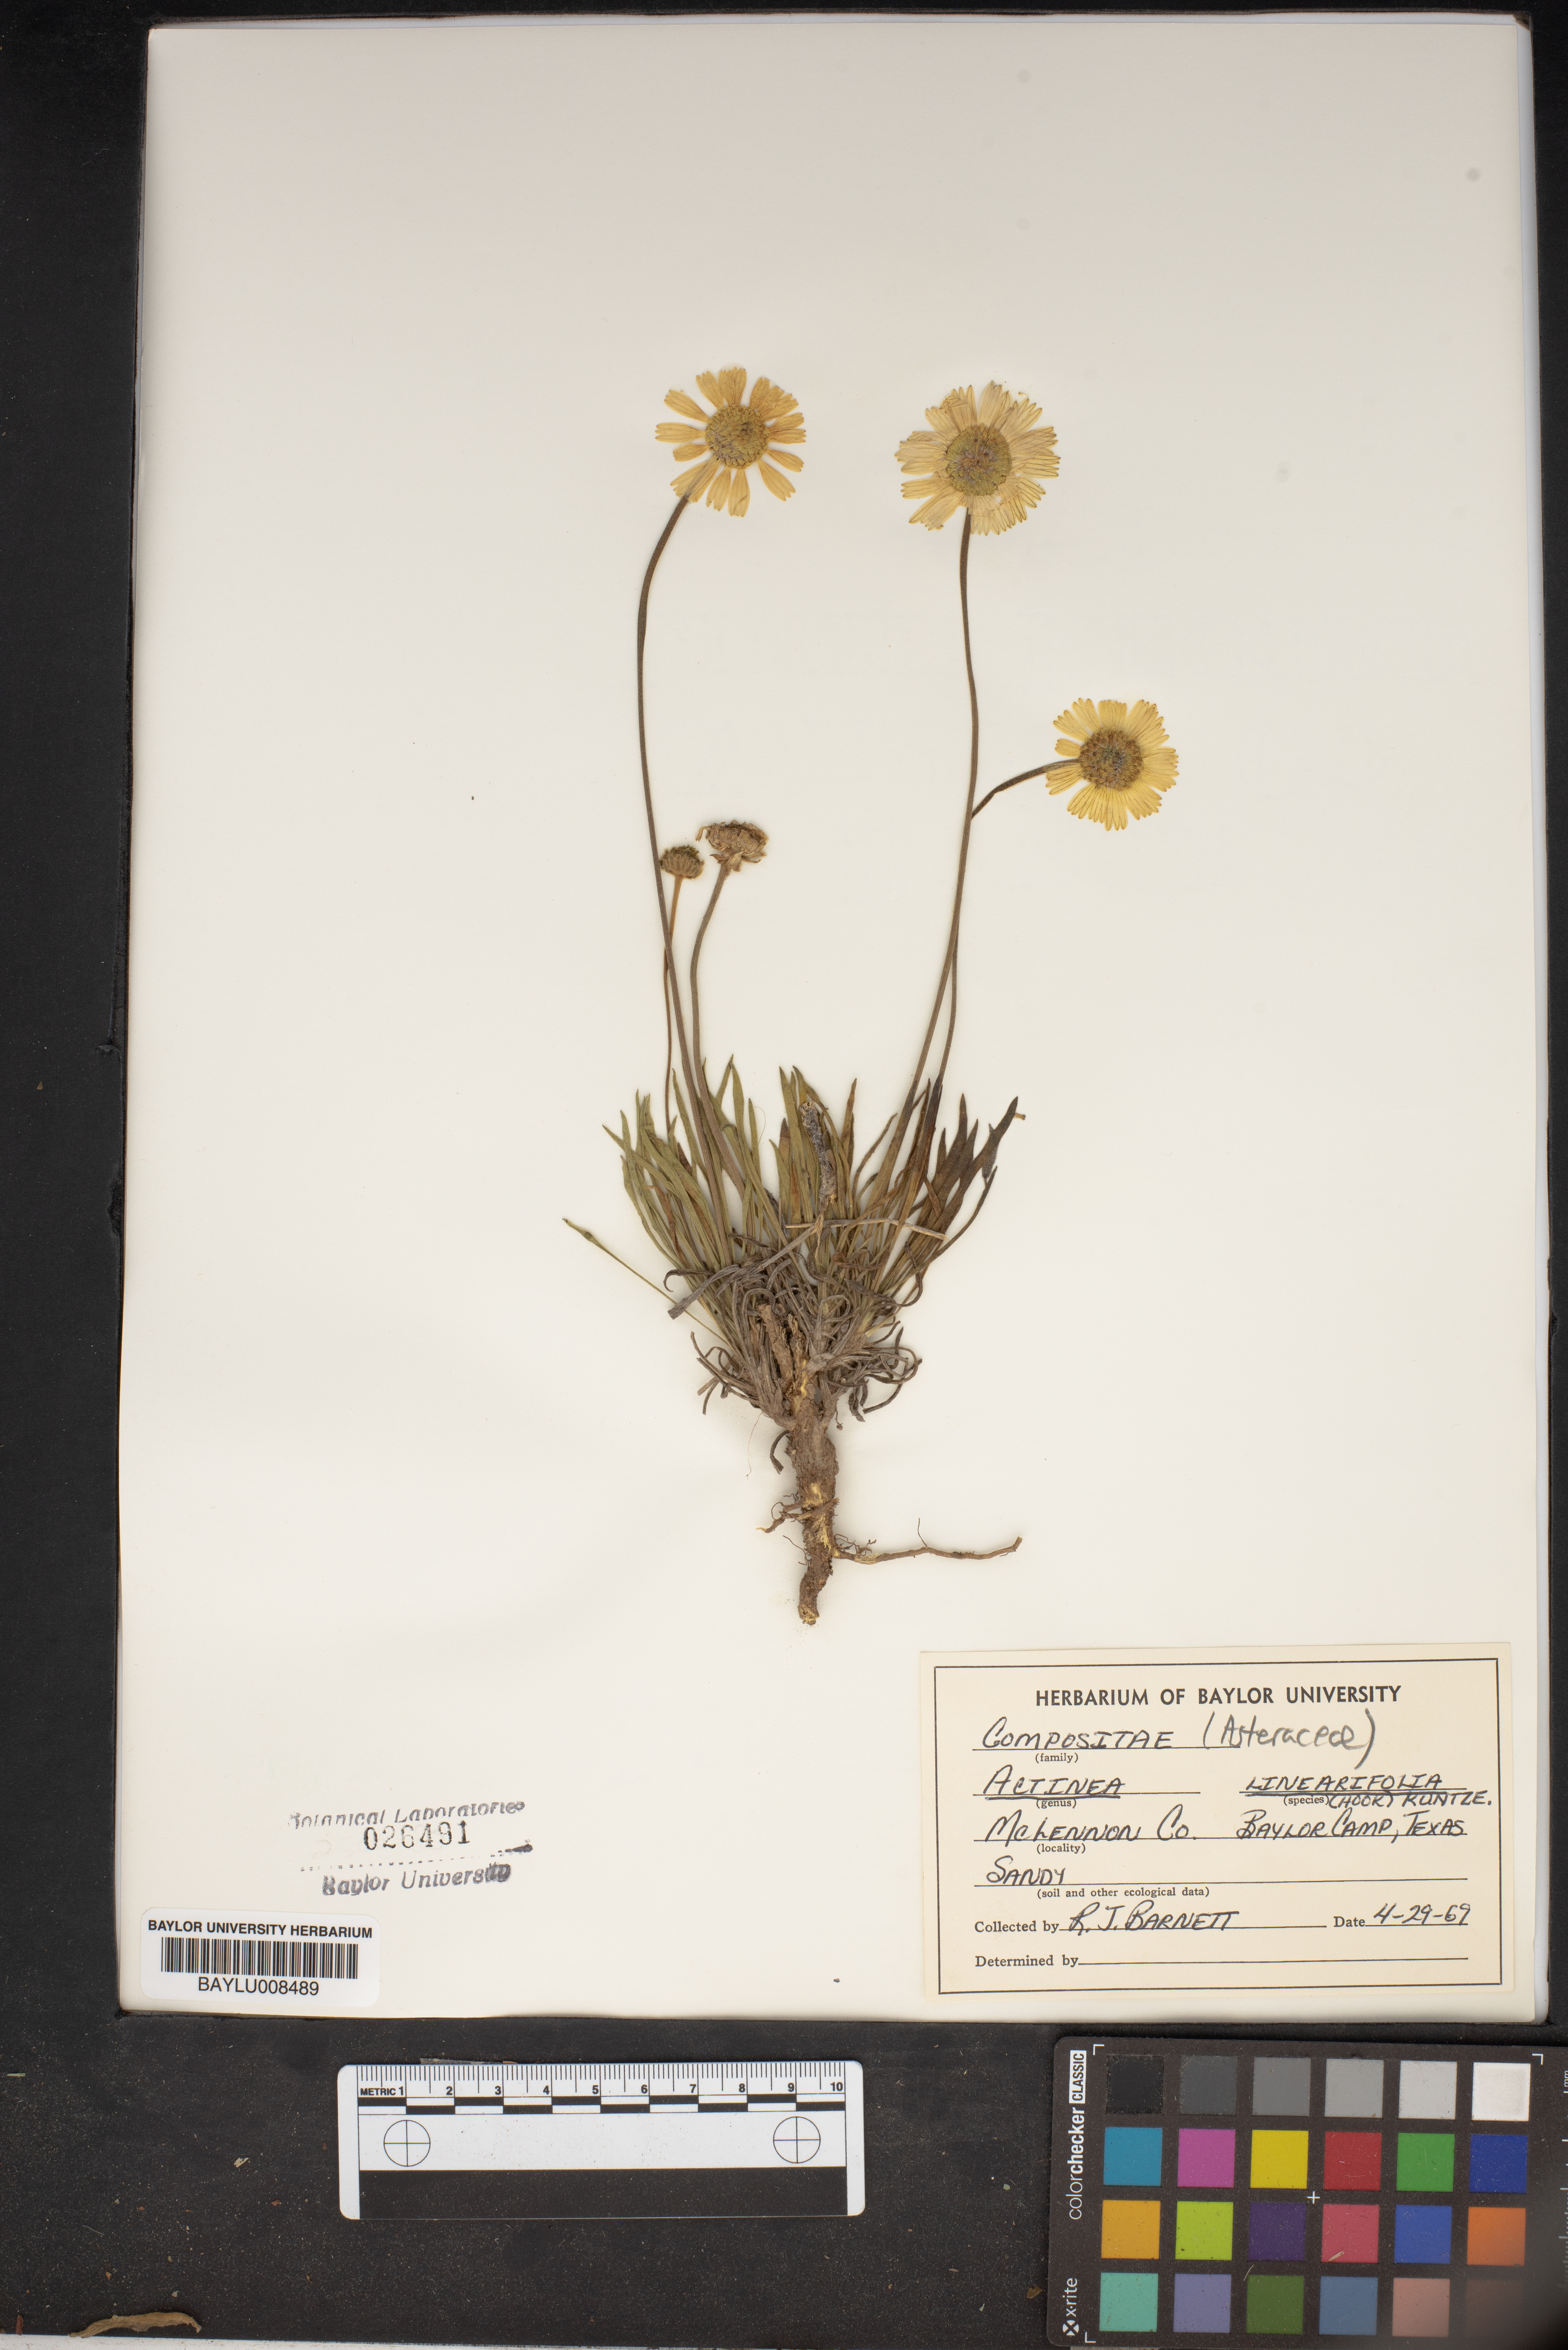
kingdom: Plantae
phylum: Tracheophyta
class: Magnoliopsida
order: Asterales
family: Asteraceae
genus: Tetraneuris
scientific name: Tetraneuris linearifolia
